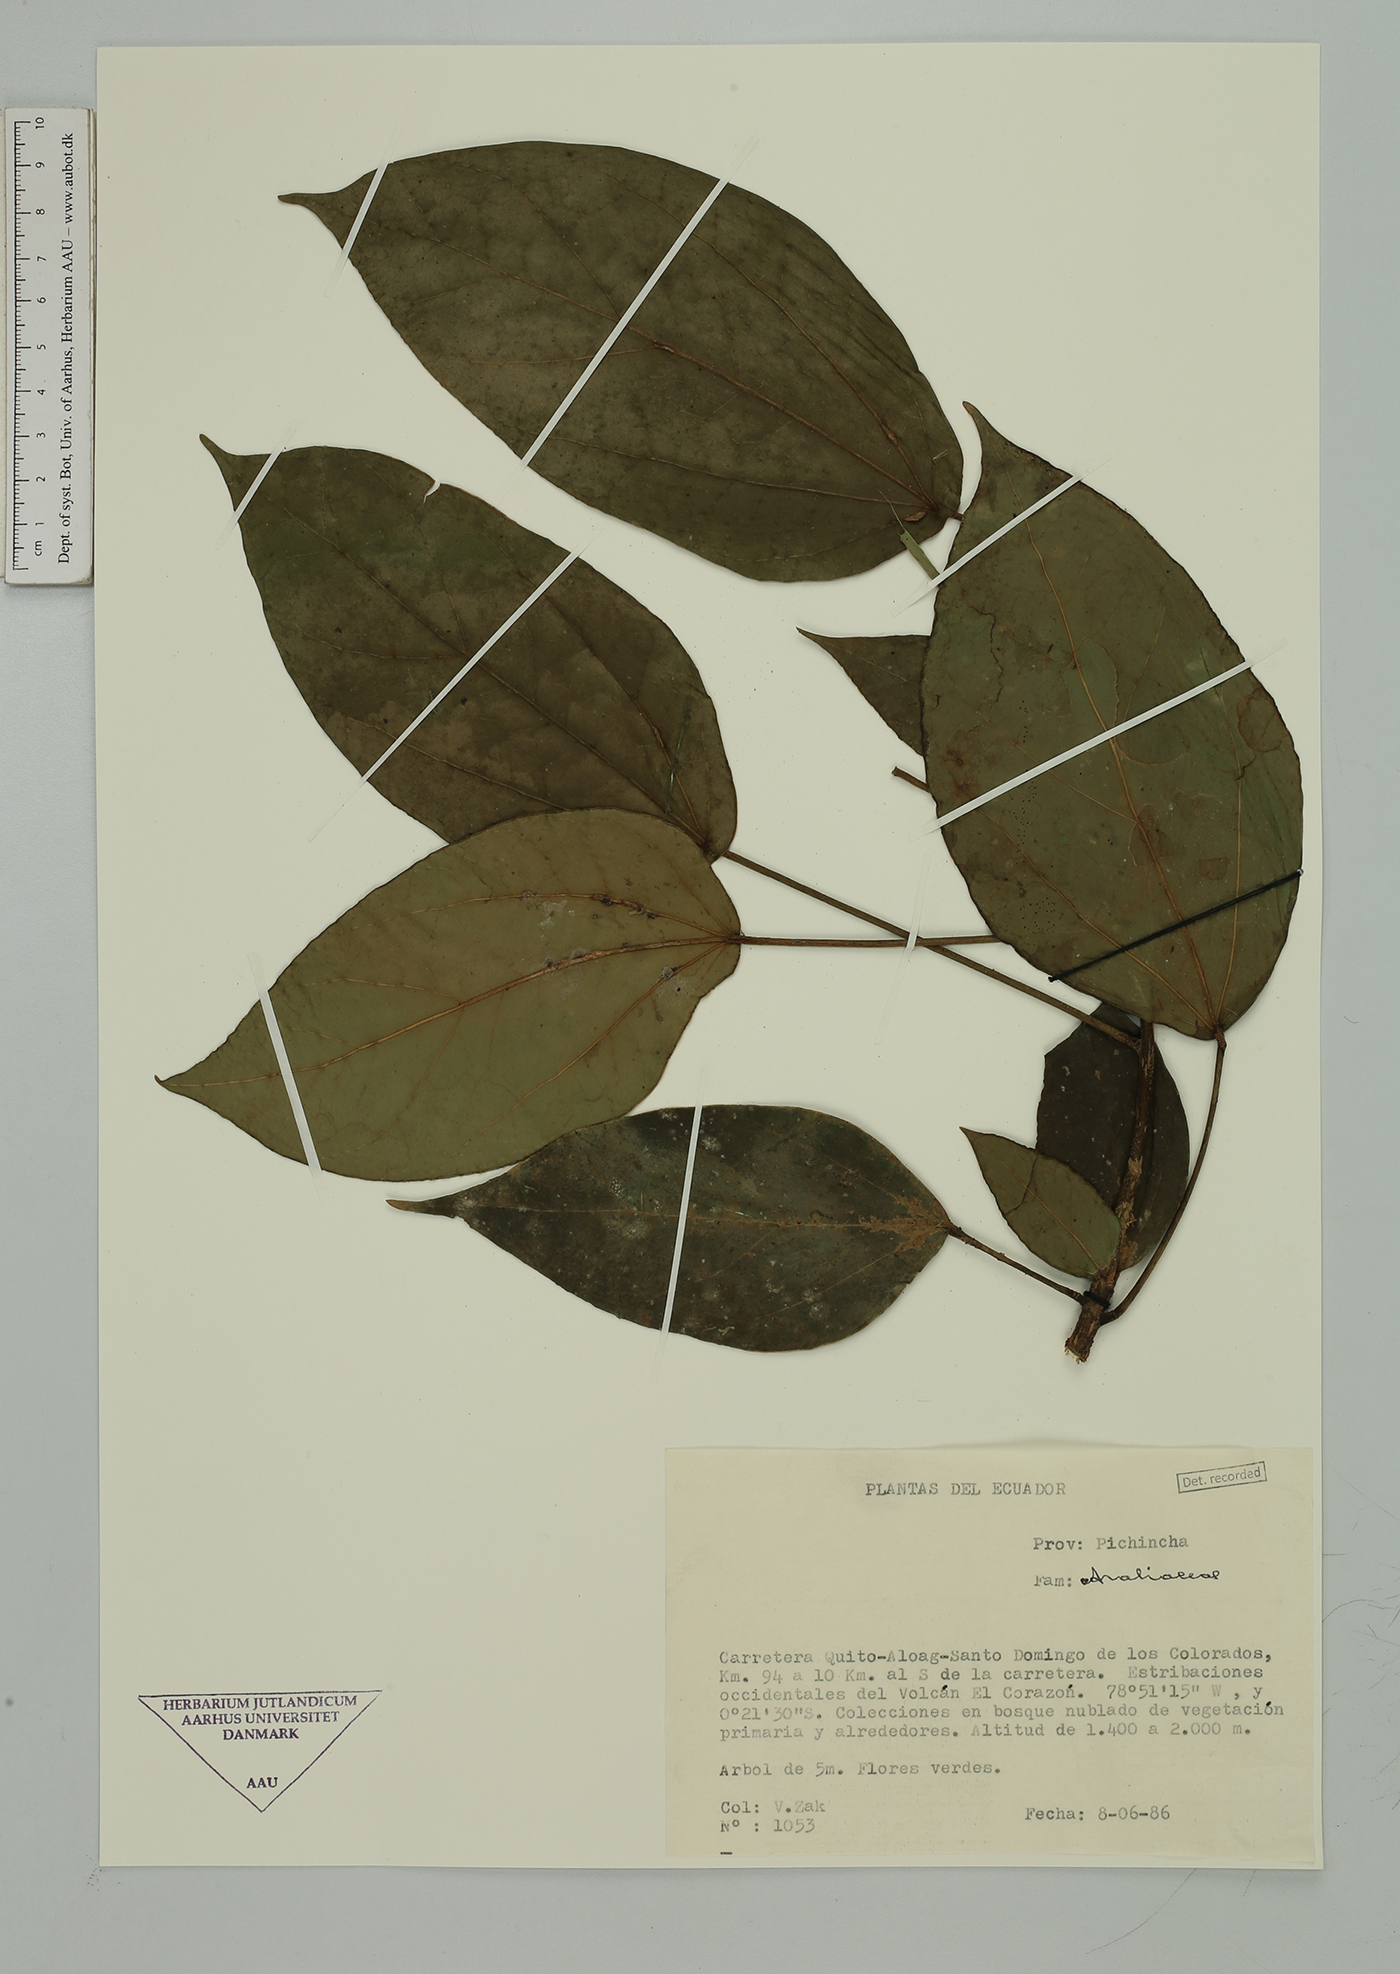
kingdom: Plantae
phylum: Tracheophyta
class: Magnoliopsida
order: Apiales
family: Araliaceae
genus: Oreopanax
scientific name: Oreopanax
